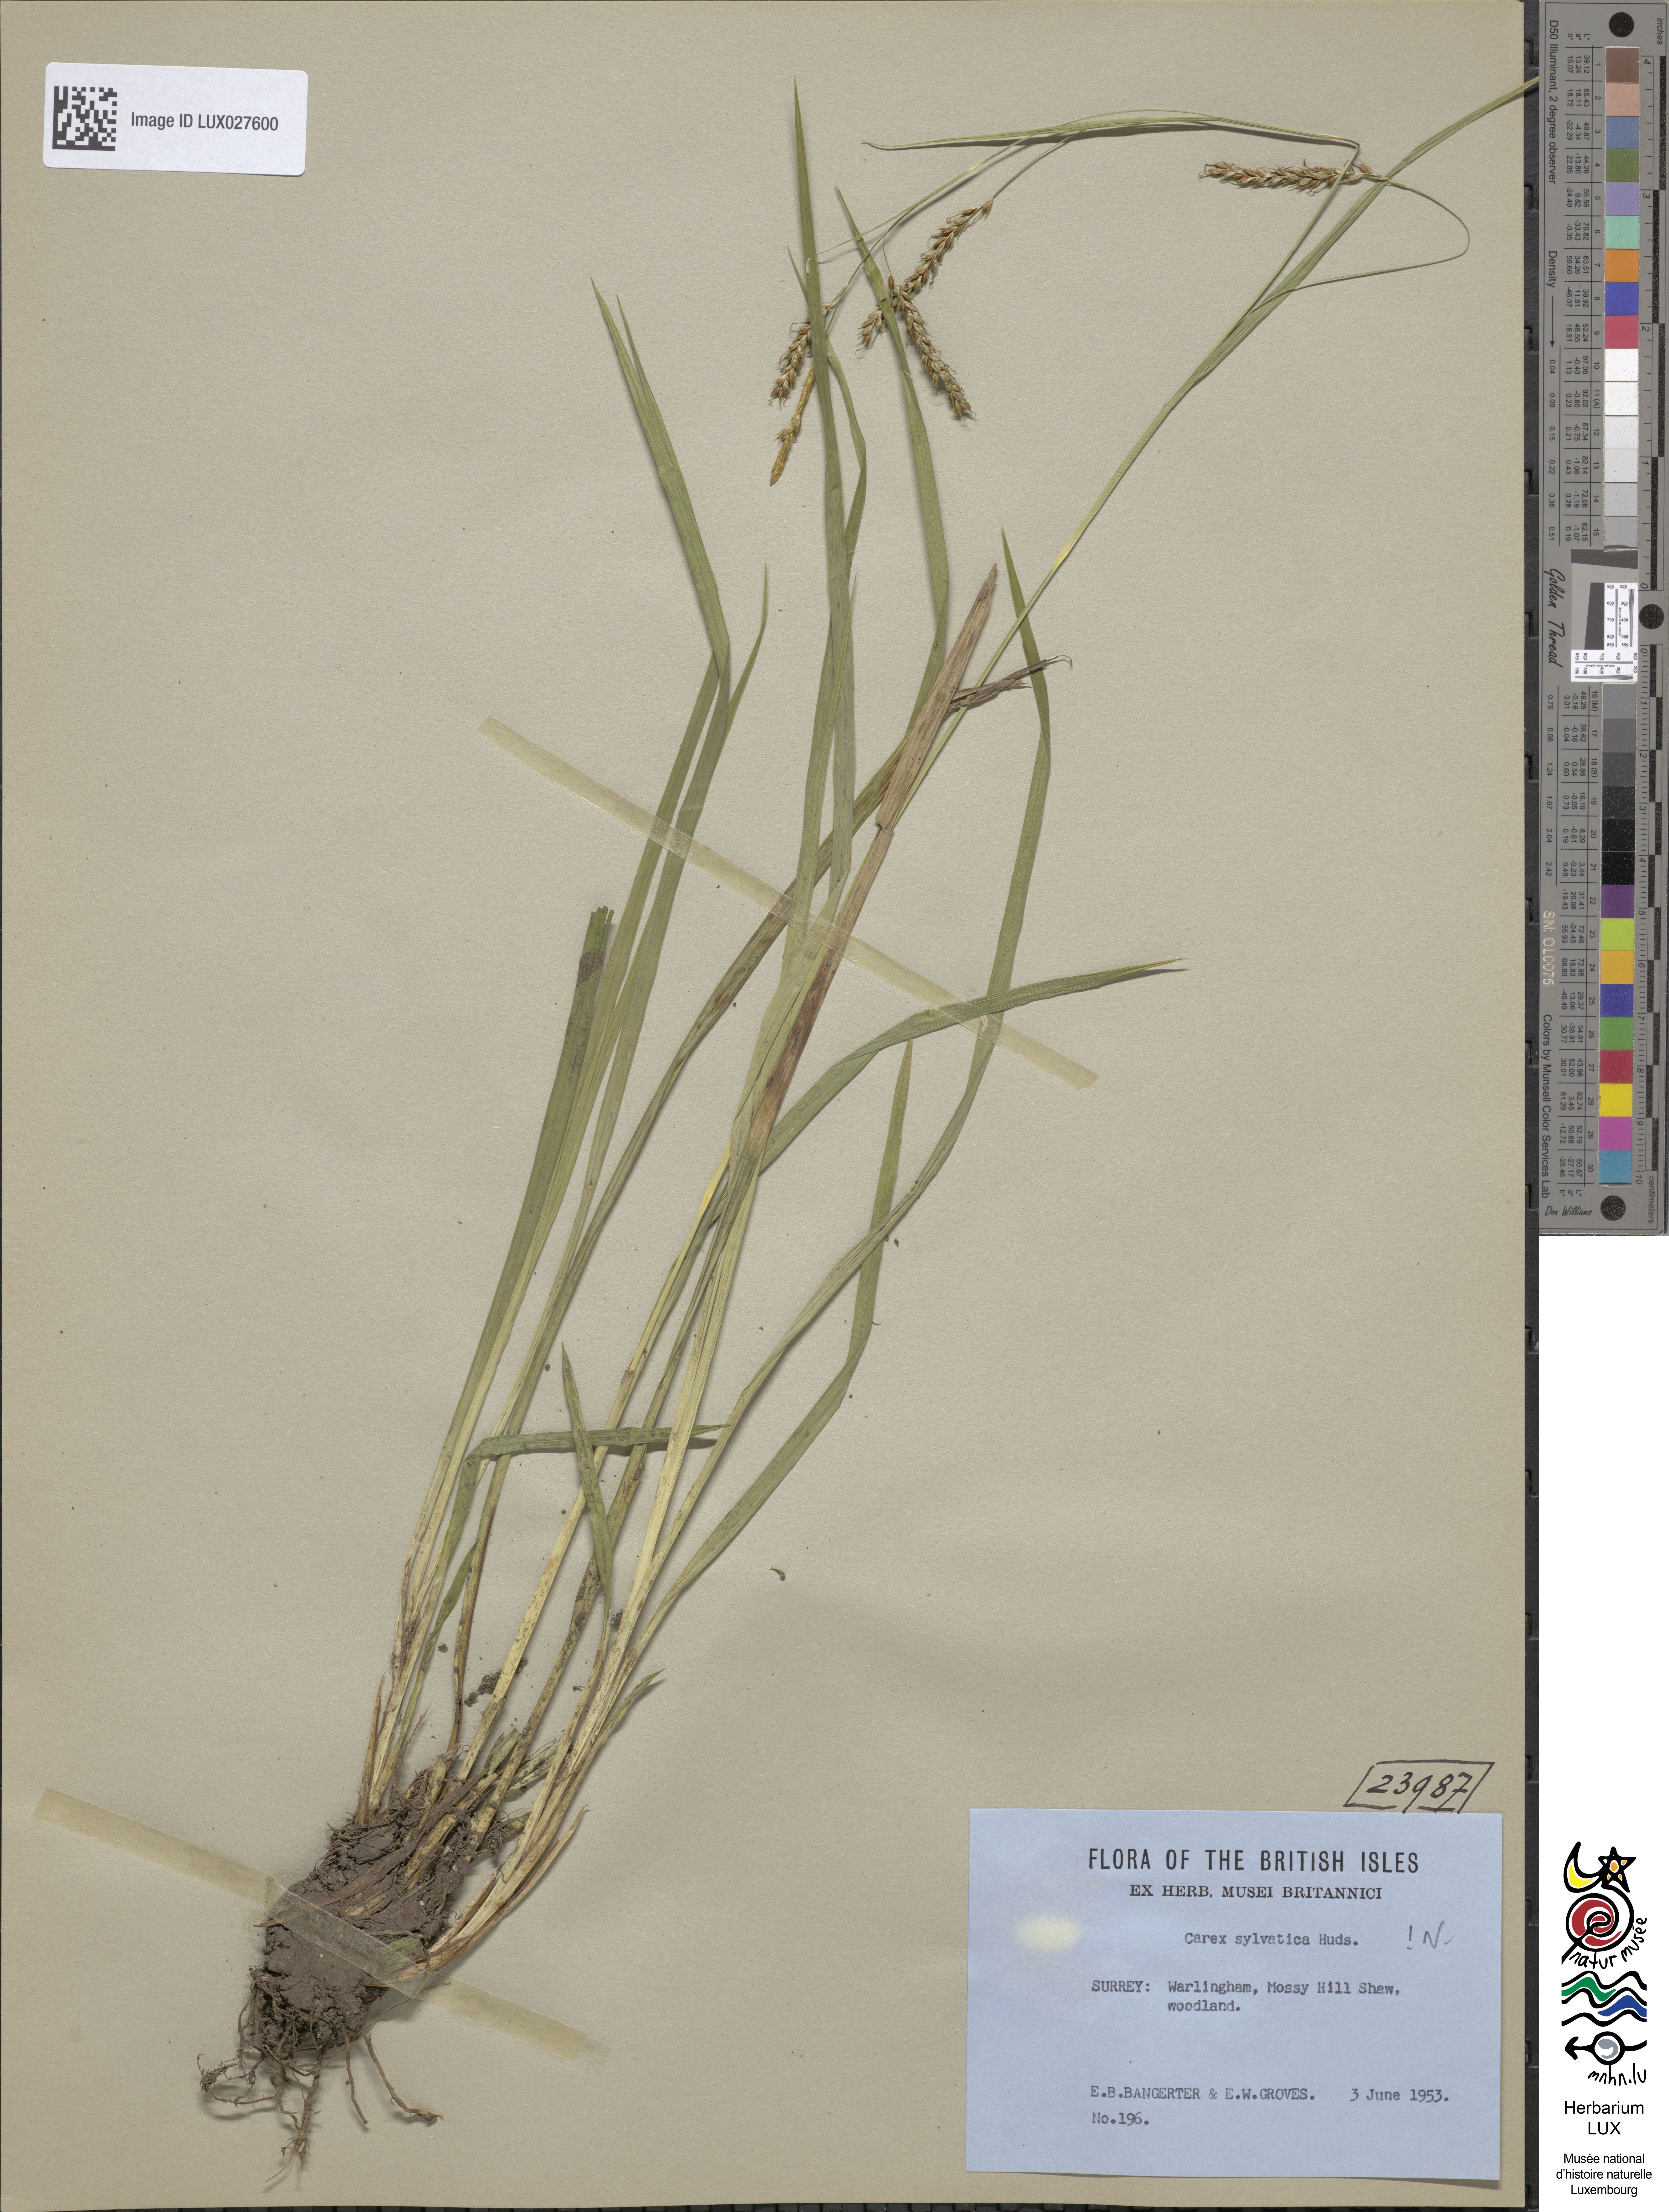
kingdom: Plantae
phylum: Tracheophyta
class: Liliopsida
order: Poales
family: Cyperaceae
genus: Carex
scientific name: Carex sylvatica
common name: Wood-sedge
